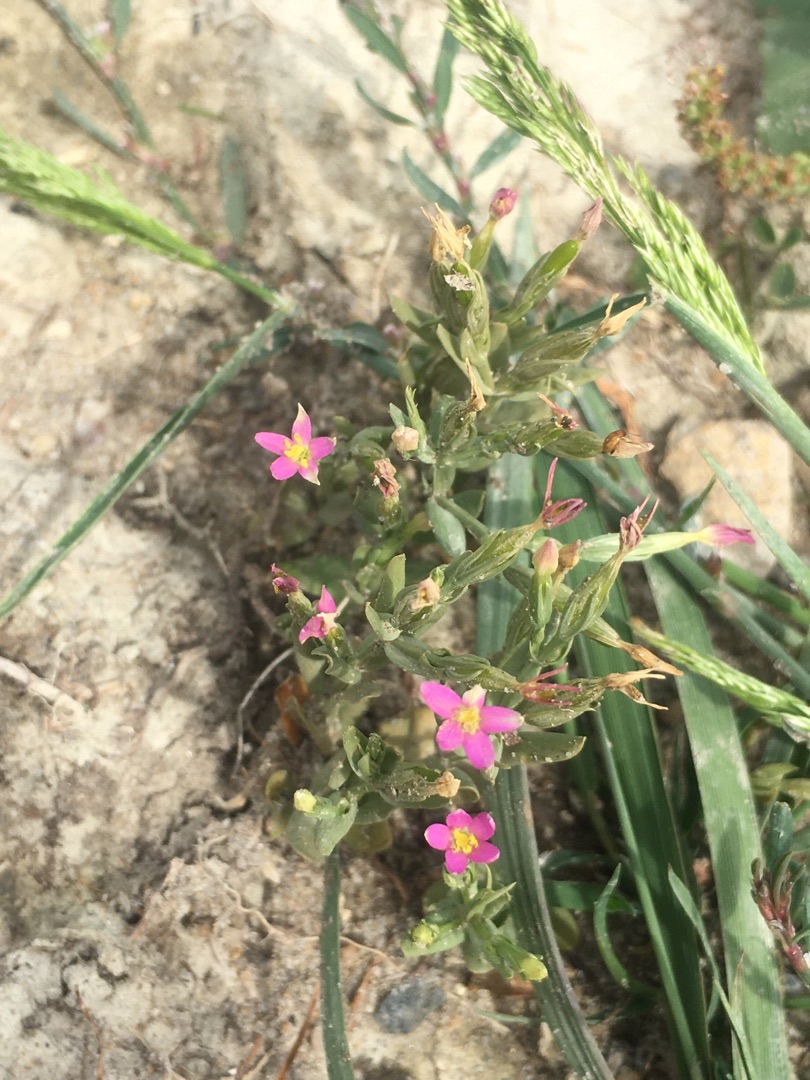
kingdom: Plantae
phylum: Tracheophyta
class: Magnoliopsida
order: Gentianales
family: Gentianaceae
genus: Centaurium
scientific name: Centaurium pulchellum
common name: Liden tusindgylden
